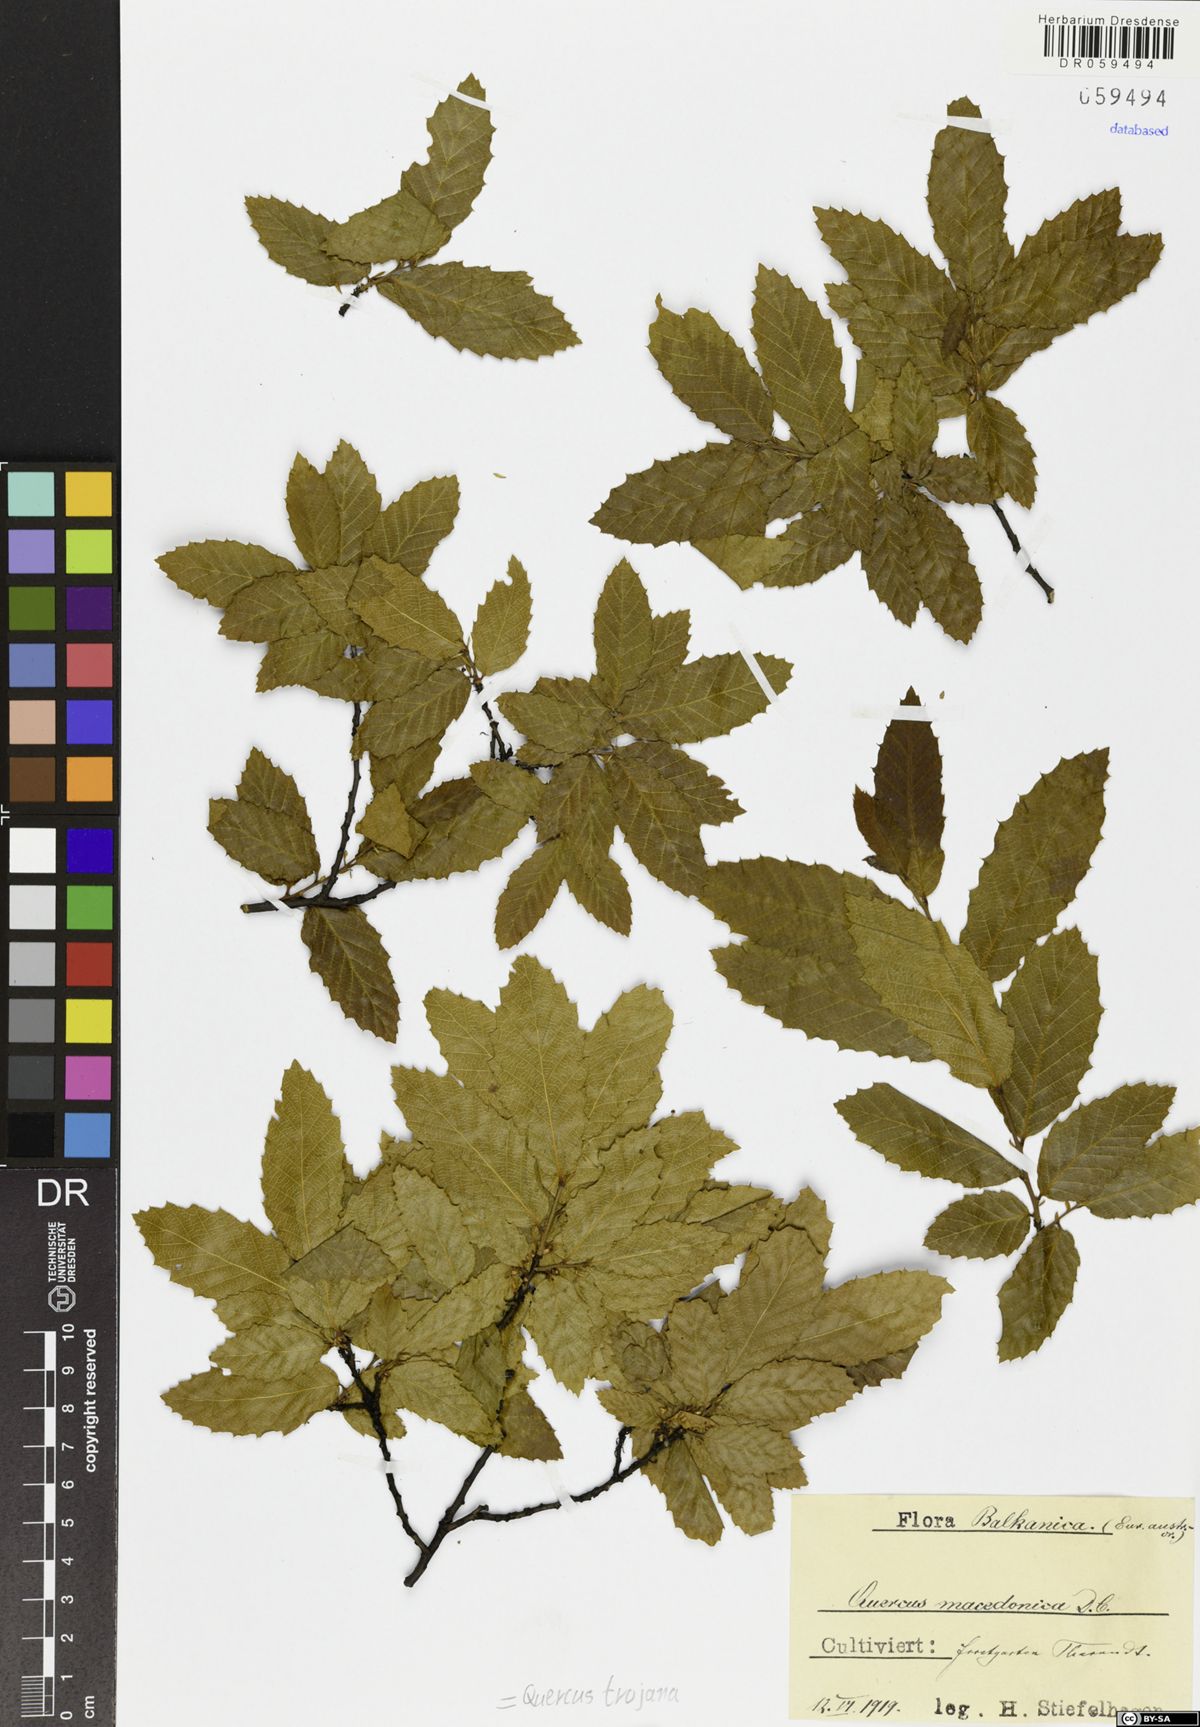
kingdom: Plantae
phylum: Tracheophyta
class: Magnoliopsida
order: Fagales
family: Fagaceae
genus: Quercus
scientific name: Quercus trojana
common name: Macedonian oak
